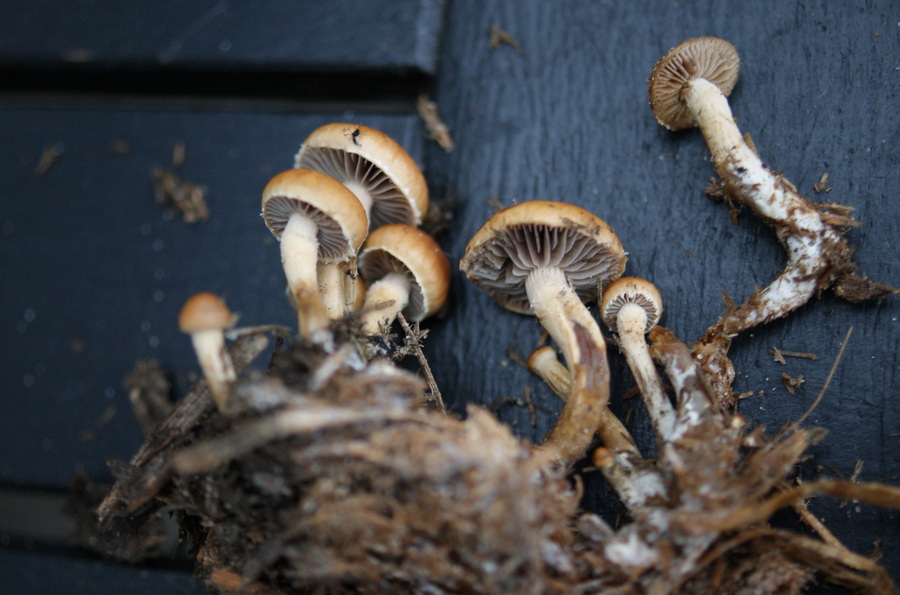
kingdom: Fungi
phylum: Basidiomycota
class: Agaricomycetes
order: Agaricales
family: Strophariaceae
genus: Deconica
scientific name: Deconica merdaria
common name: møg-stråhat
